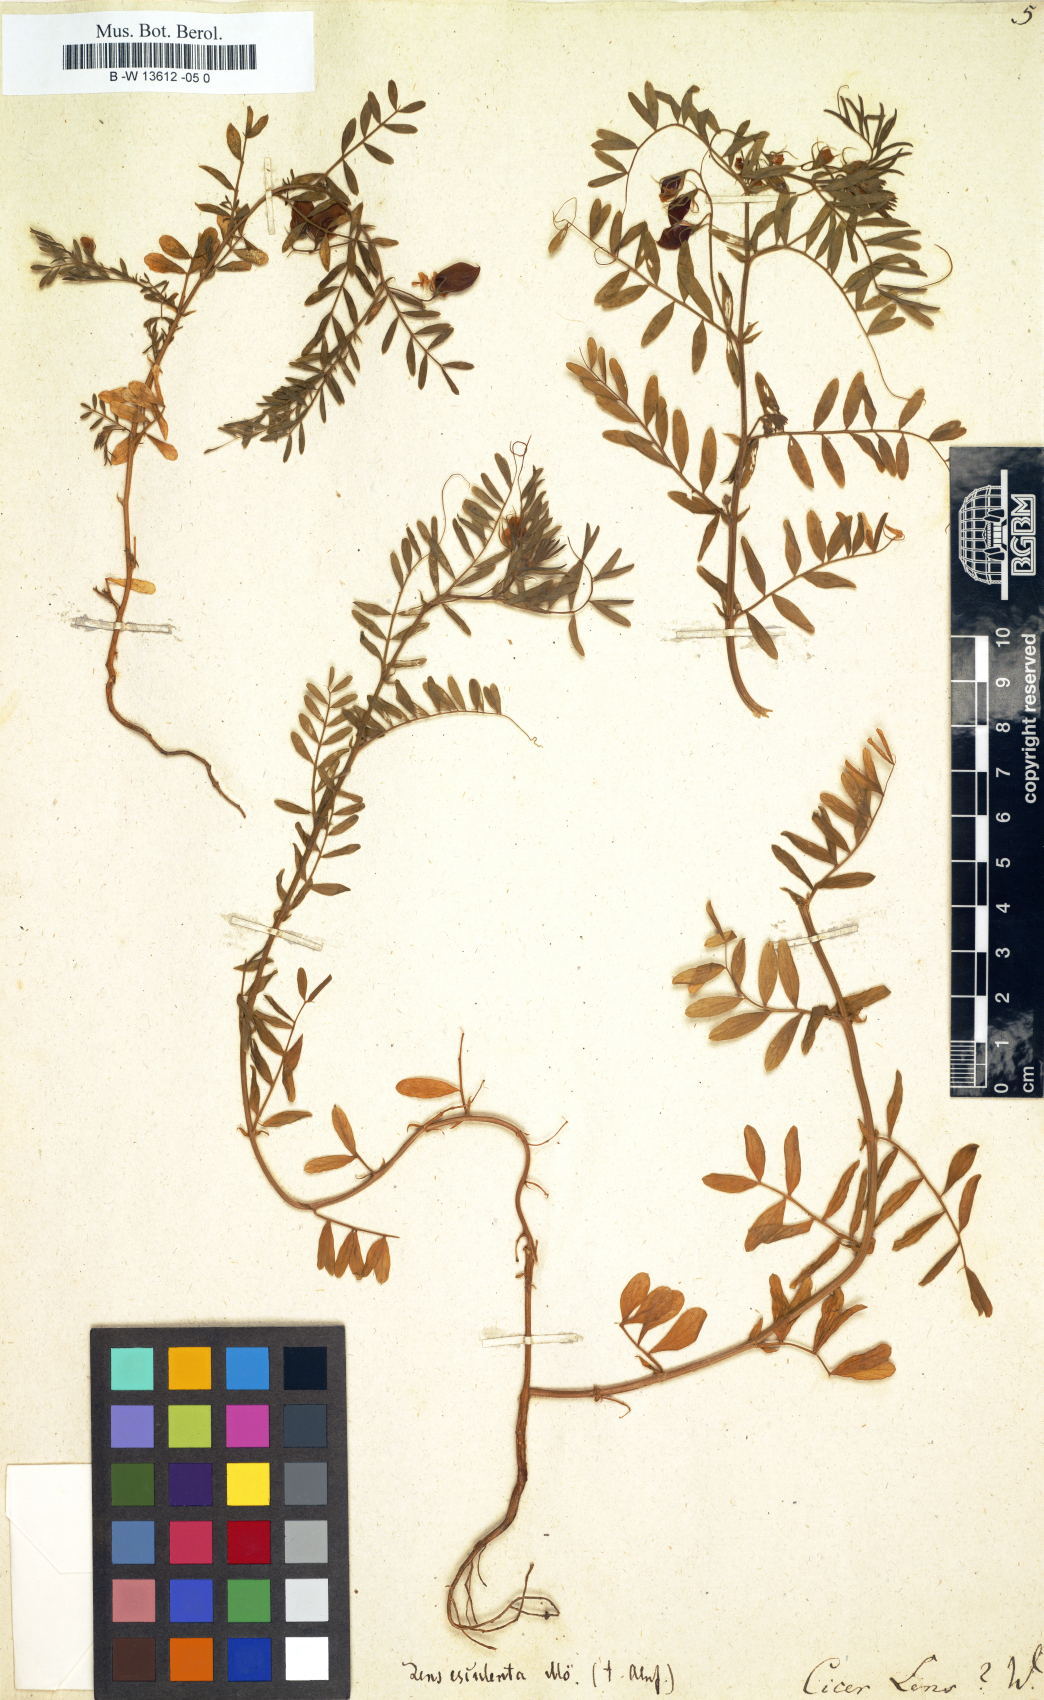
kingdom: Plantae
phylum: Tracheophyta
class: Magnoliopsida
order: Fabales
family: Fabaceae
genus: Vicia
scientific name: Vicia lens
